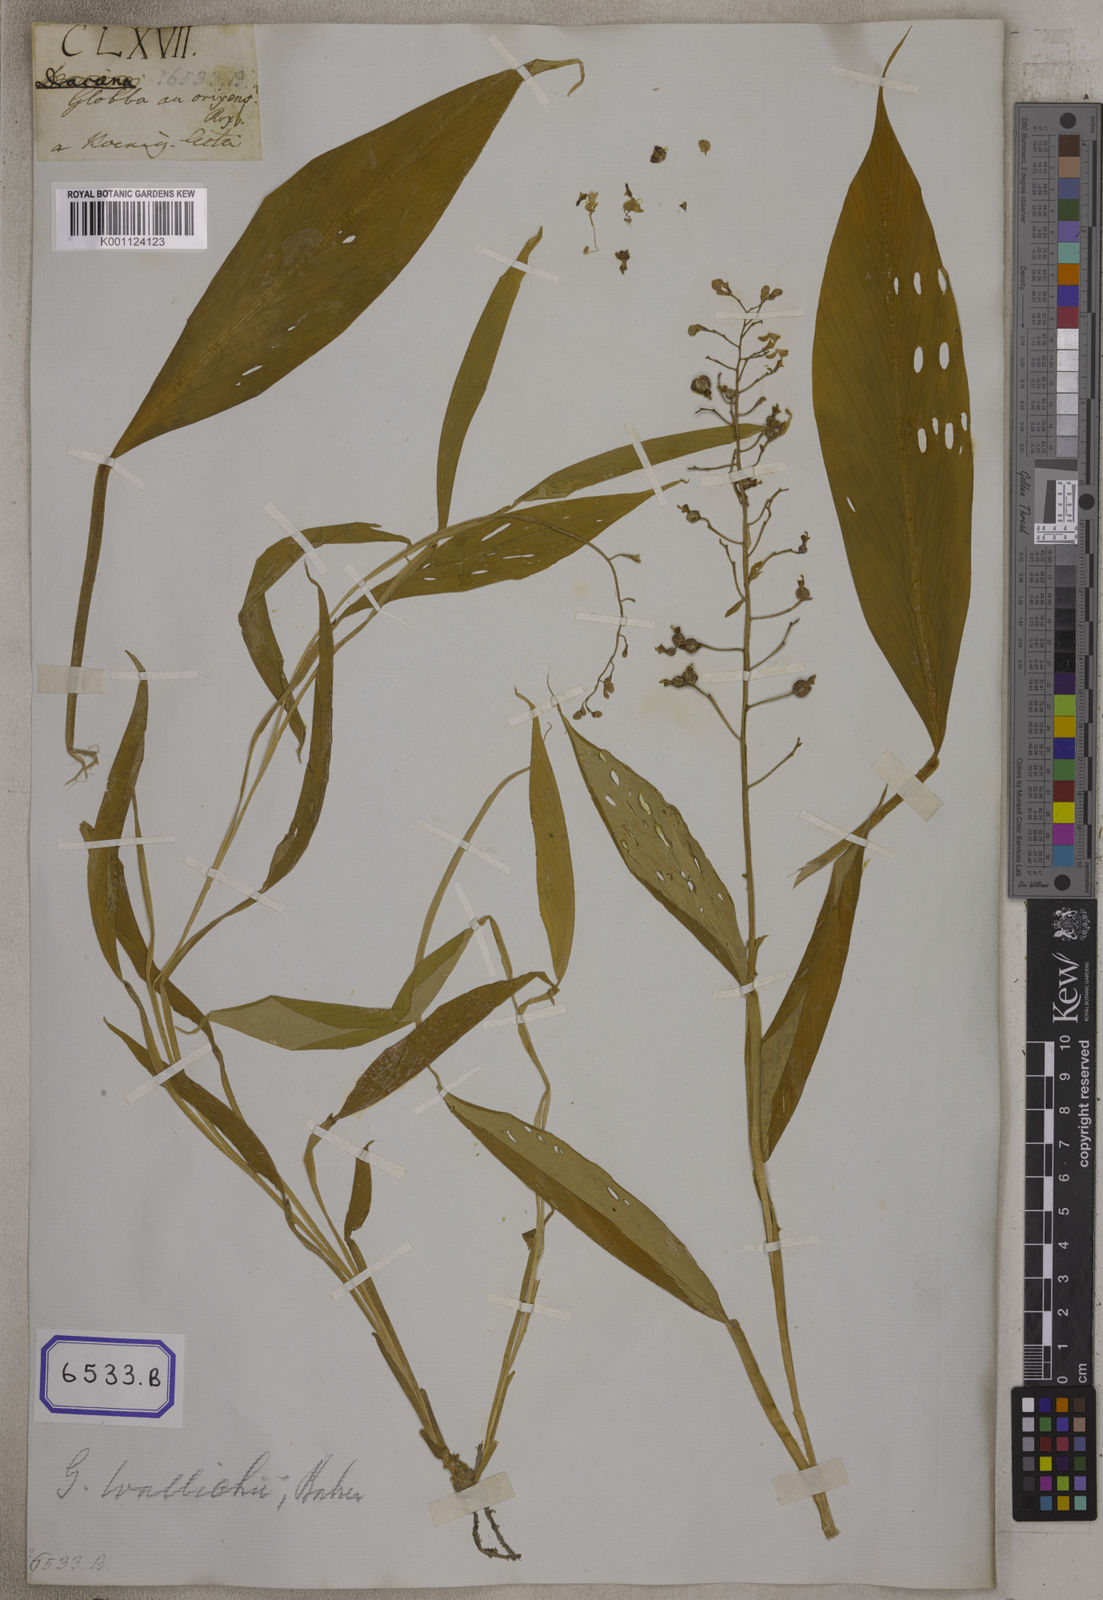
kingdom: Plantae
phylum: Tracheophyta
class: Liliopsida
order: Zingiberales
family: Zingiberaceae
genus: Globba
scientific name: Globba pendula
